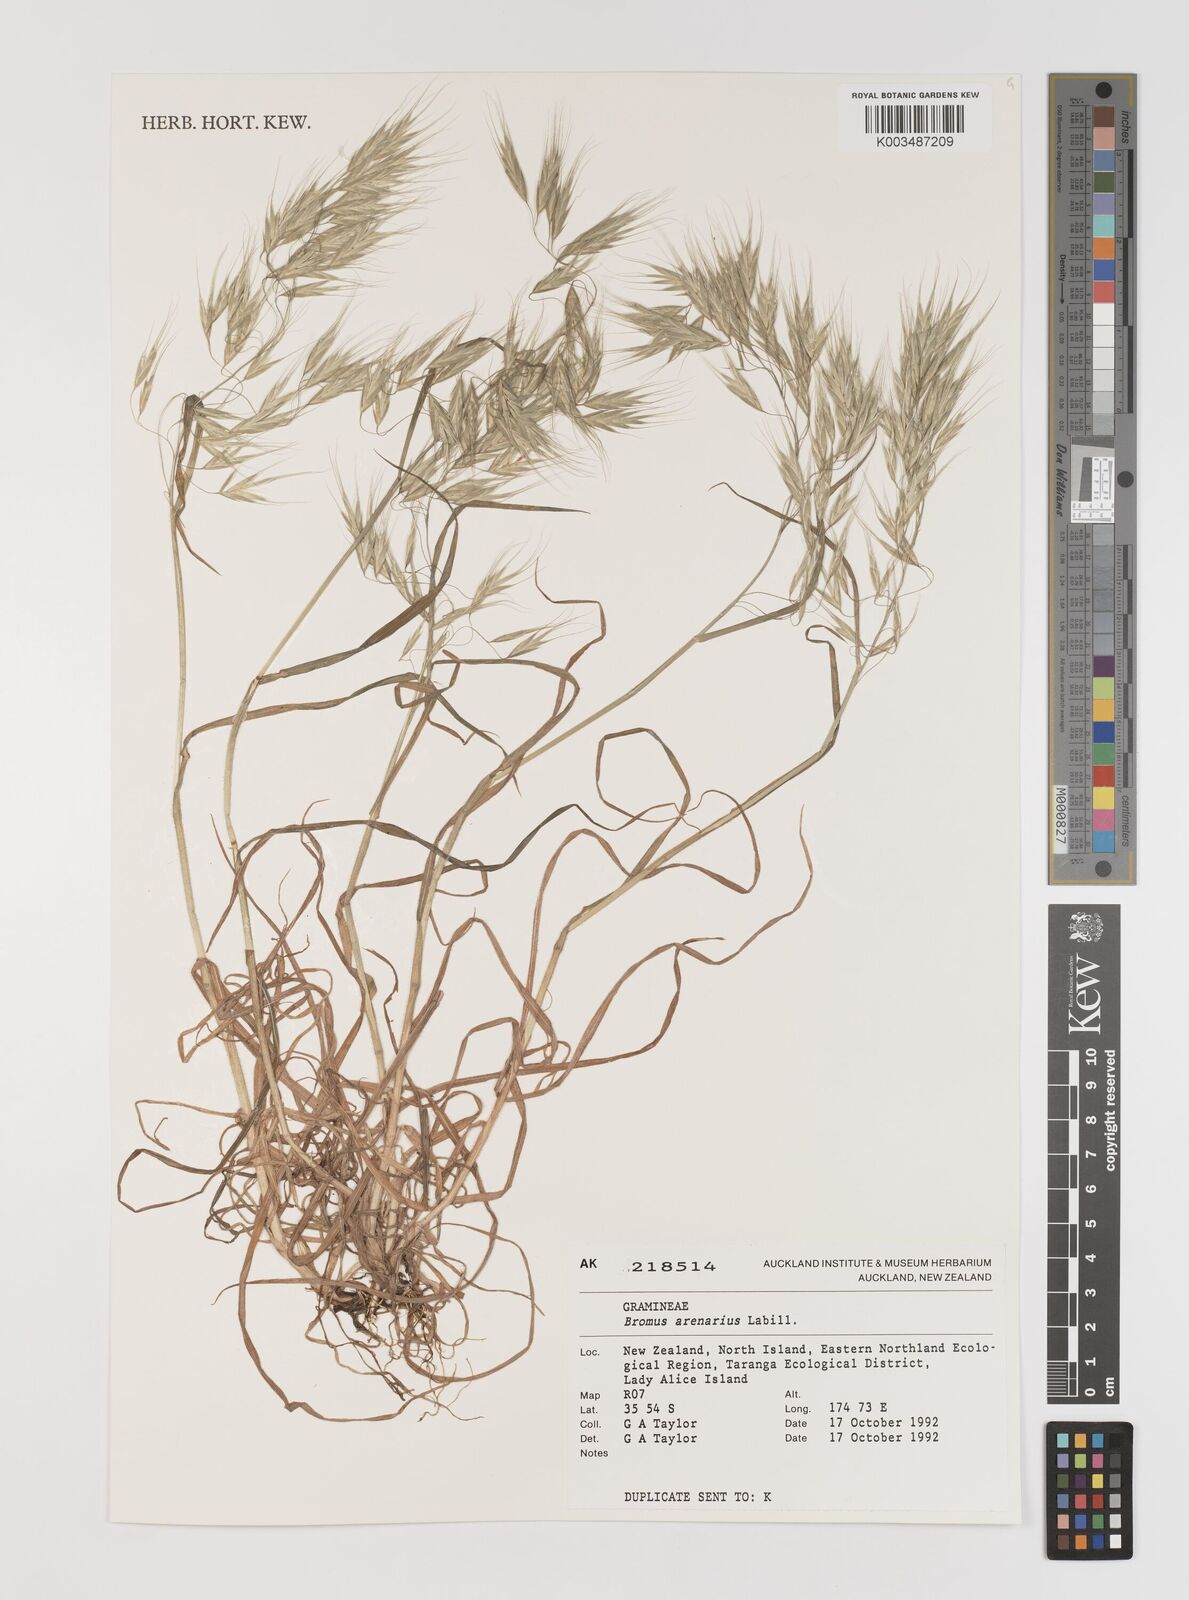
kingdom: Plantae
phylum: Tracheophyta
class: Liliopsida
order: Poales
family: Poaceae
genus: Bromus
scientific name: Bromus arenarius
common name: Australian brome
